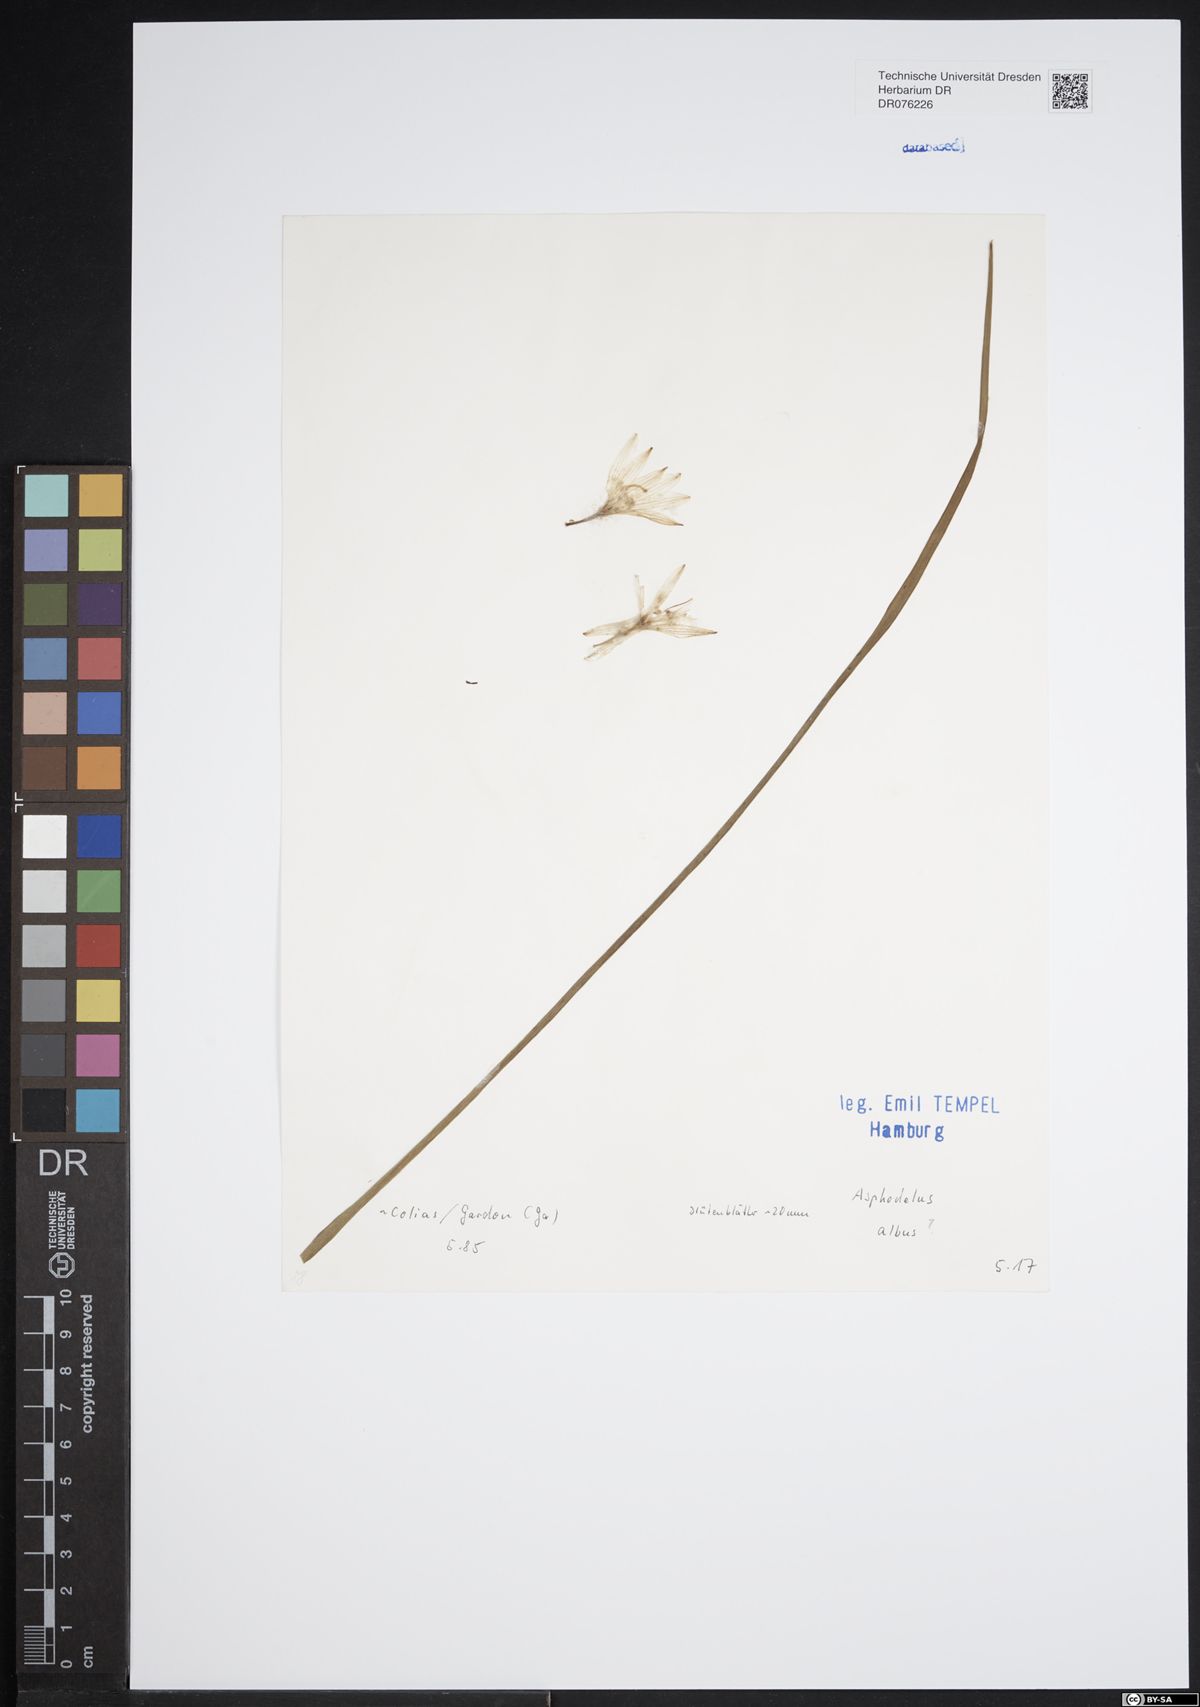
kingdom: Plantae
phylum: Tracheophyta
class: Liliopsida
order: Asparagales
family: Asphodelaceae
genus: Asphodelus
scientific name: Asphodelus albus
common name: White asphodel
